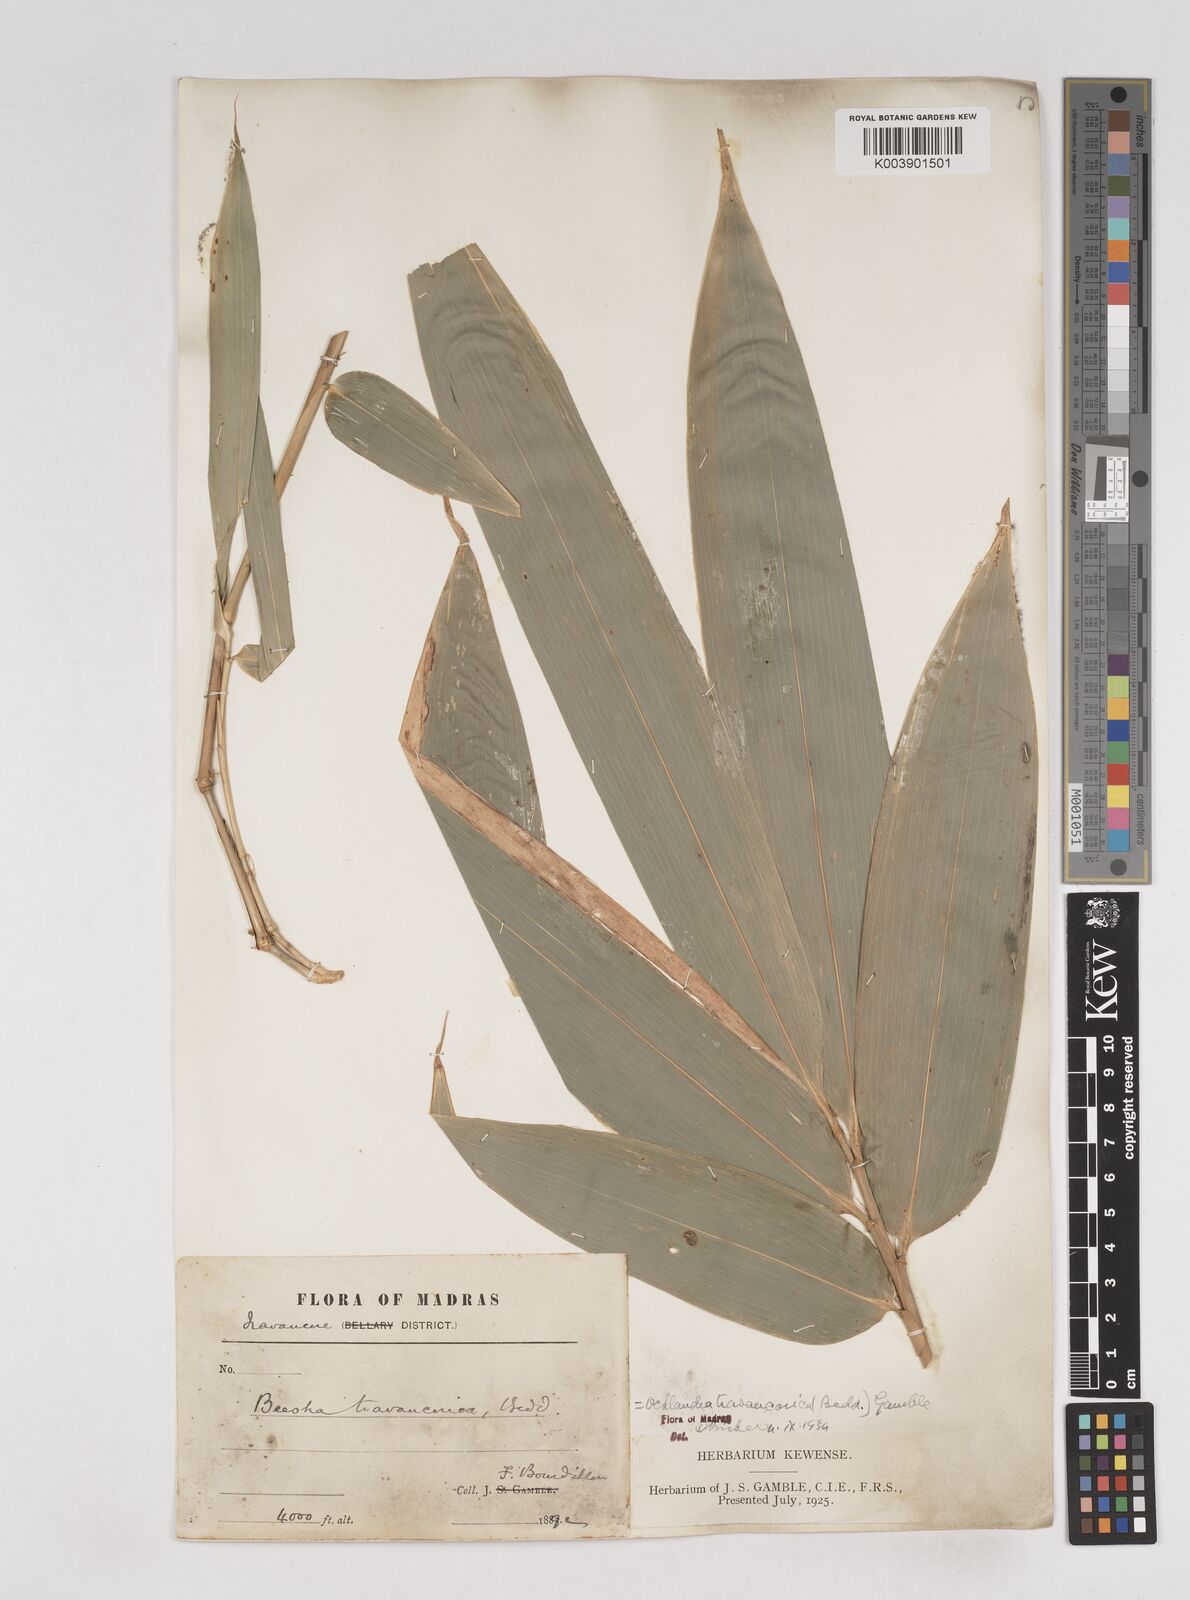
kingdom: Plantae
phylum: Tracheophyta
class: Liliopsida
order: Poales
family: Poaceae
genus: Ochlandra
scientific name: Ochlandra travancorica
